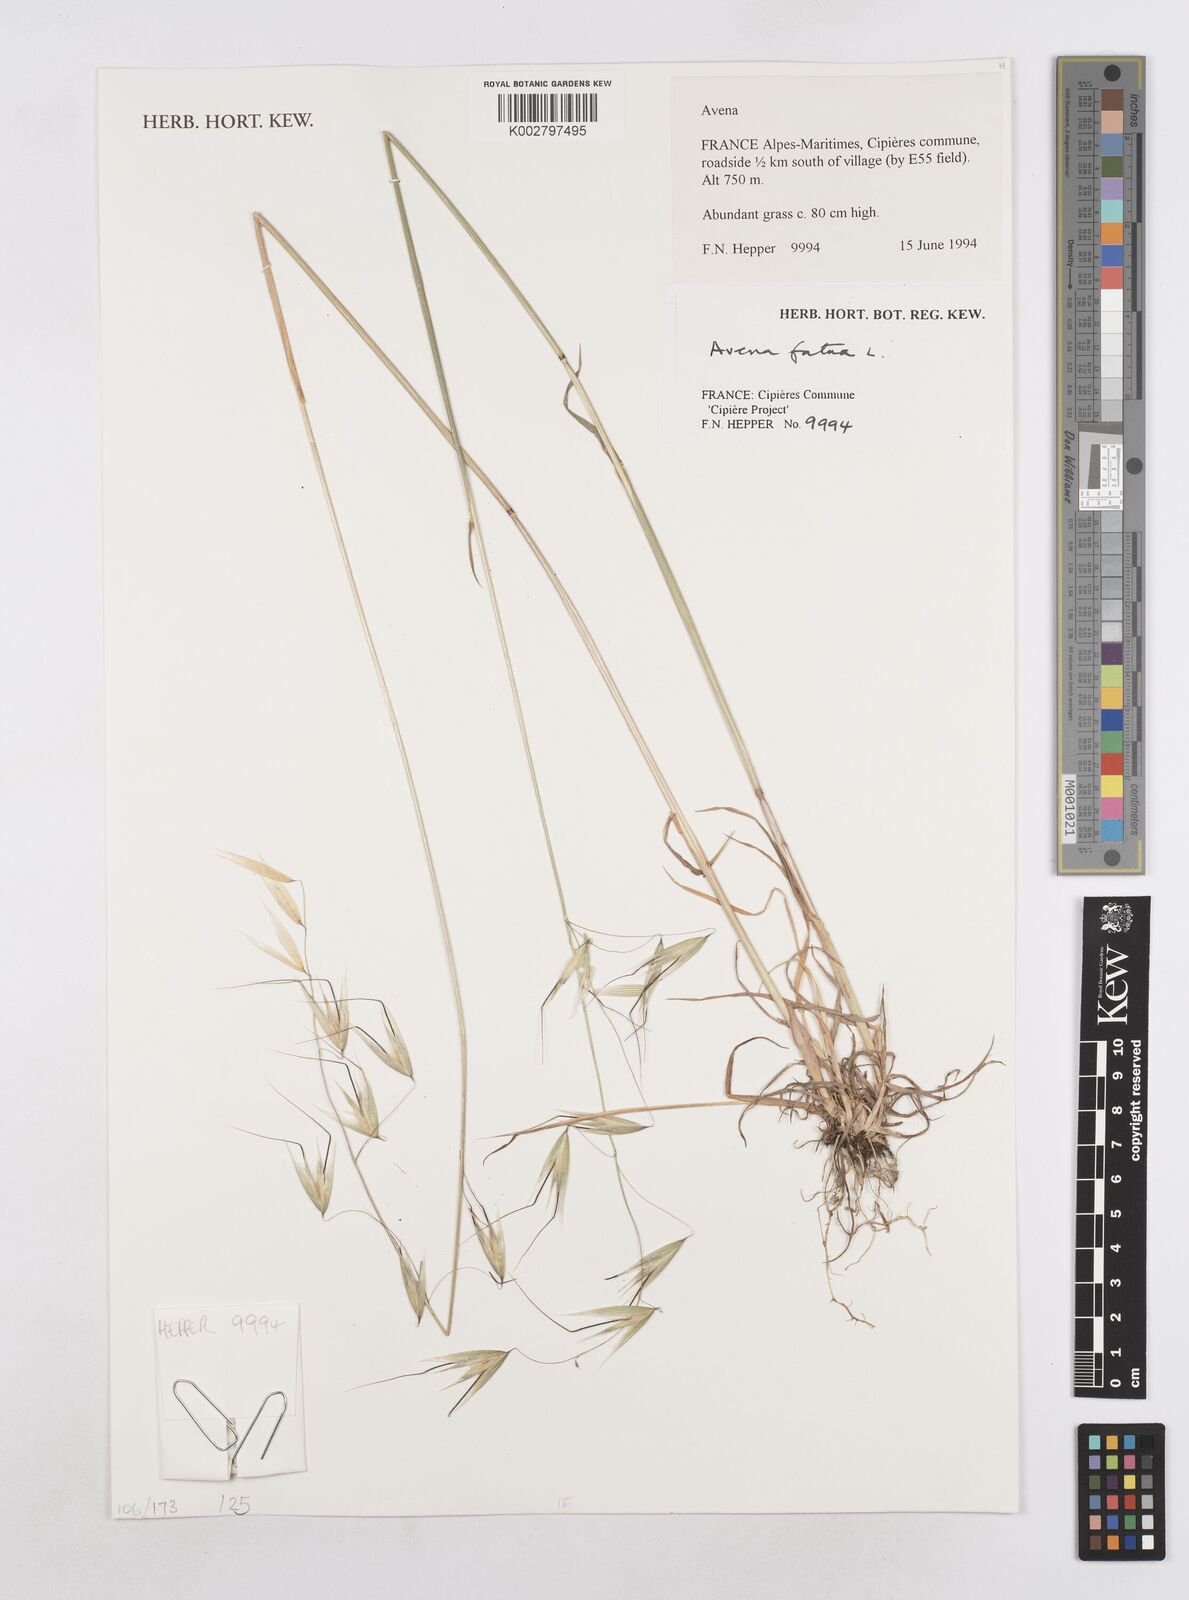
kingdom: Plantae
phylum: Tracheophyta
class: Liliopsida
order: Poales
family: Poaceae
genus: Avena
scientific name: Avena fatua
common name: Wild oat
